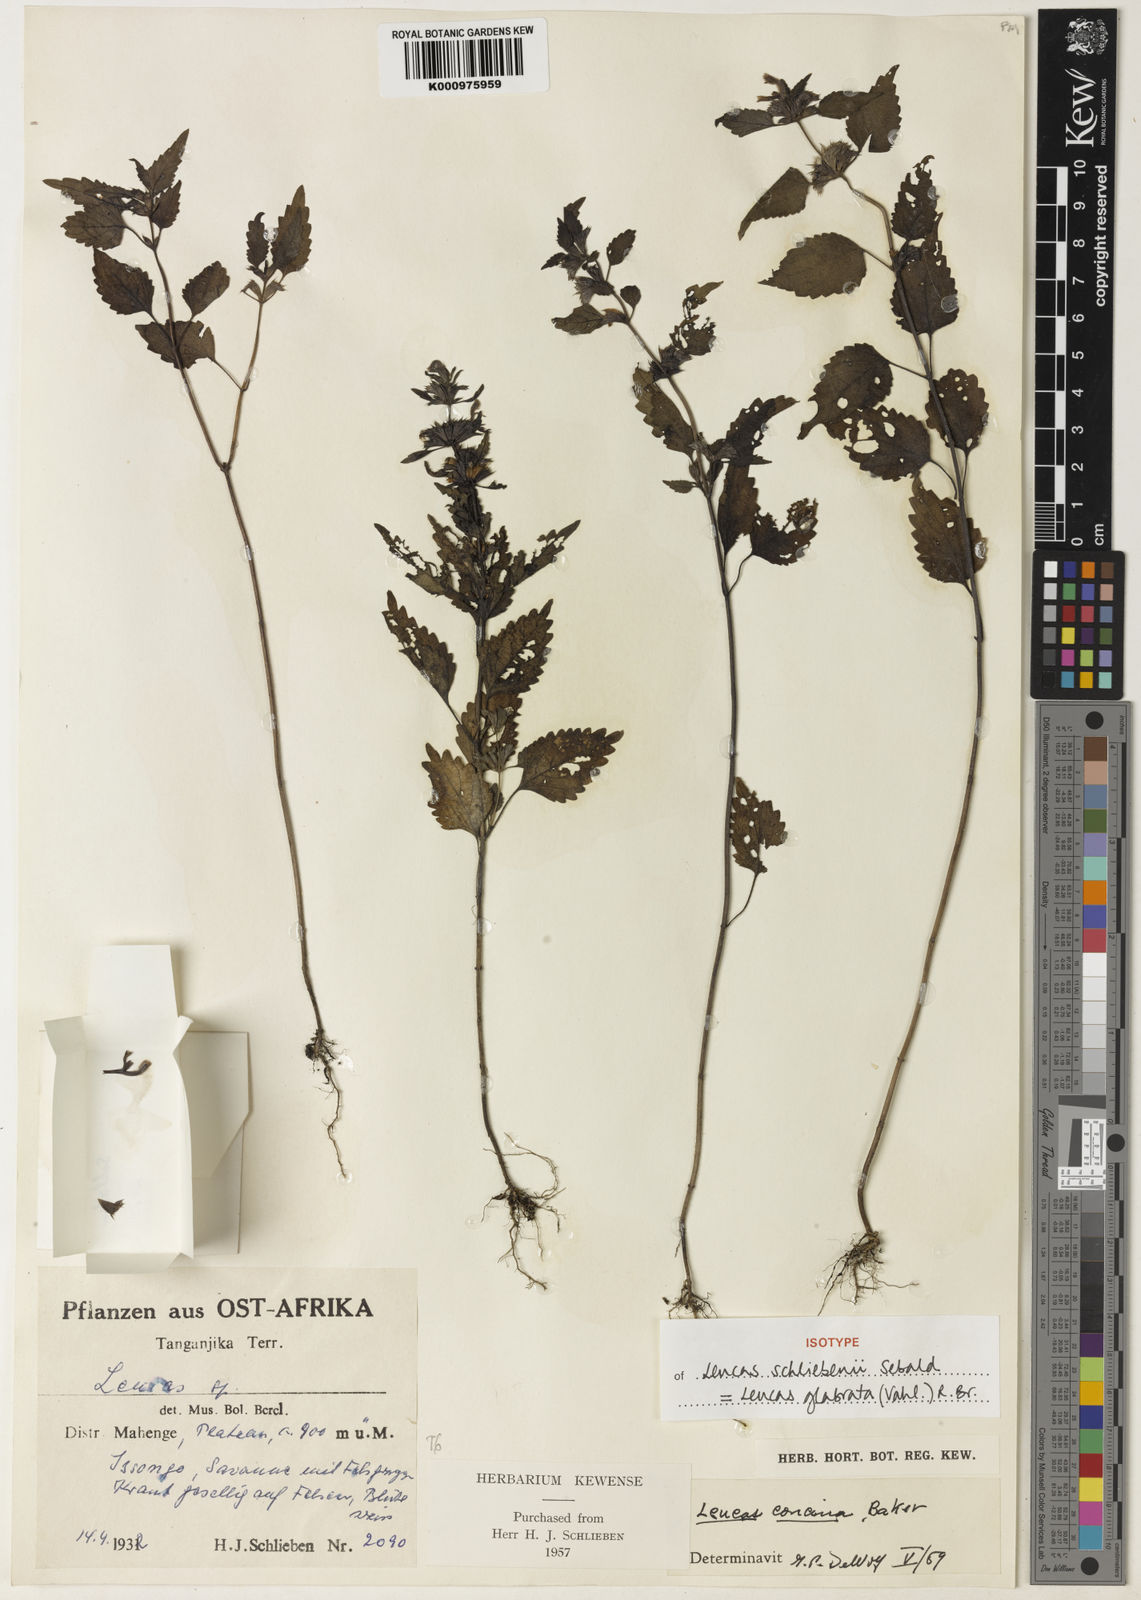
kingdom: Plantae
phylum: Tracheophyta
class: Magnoliopsida
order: Lamiales
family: Lamiaceae
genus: Leucas
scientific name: Leucas glabrata
